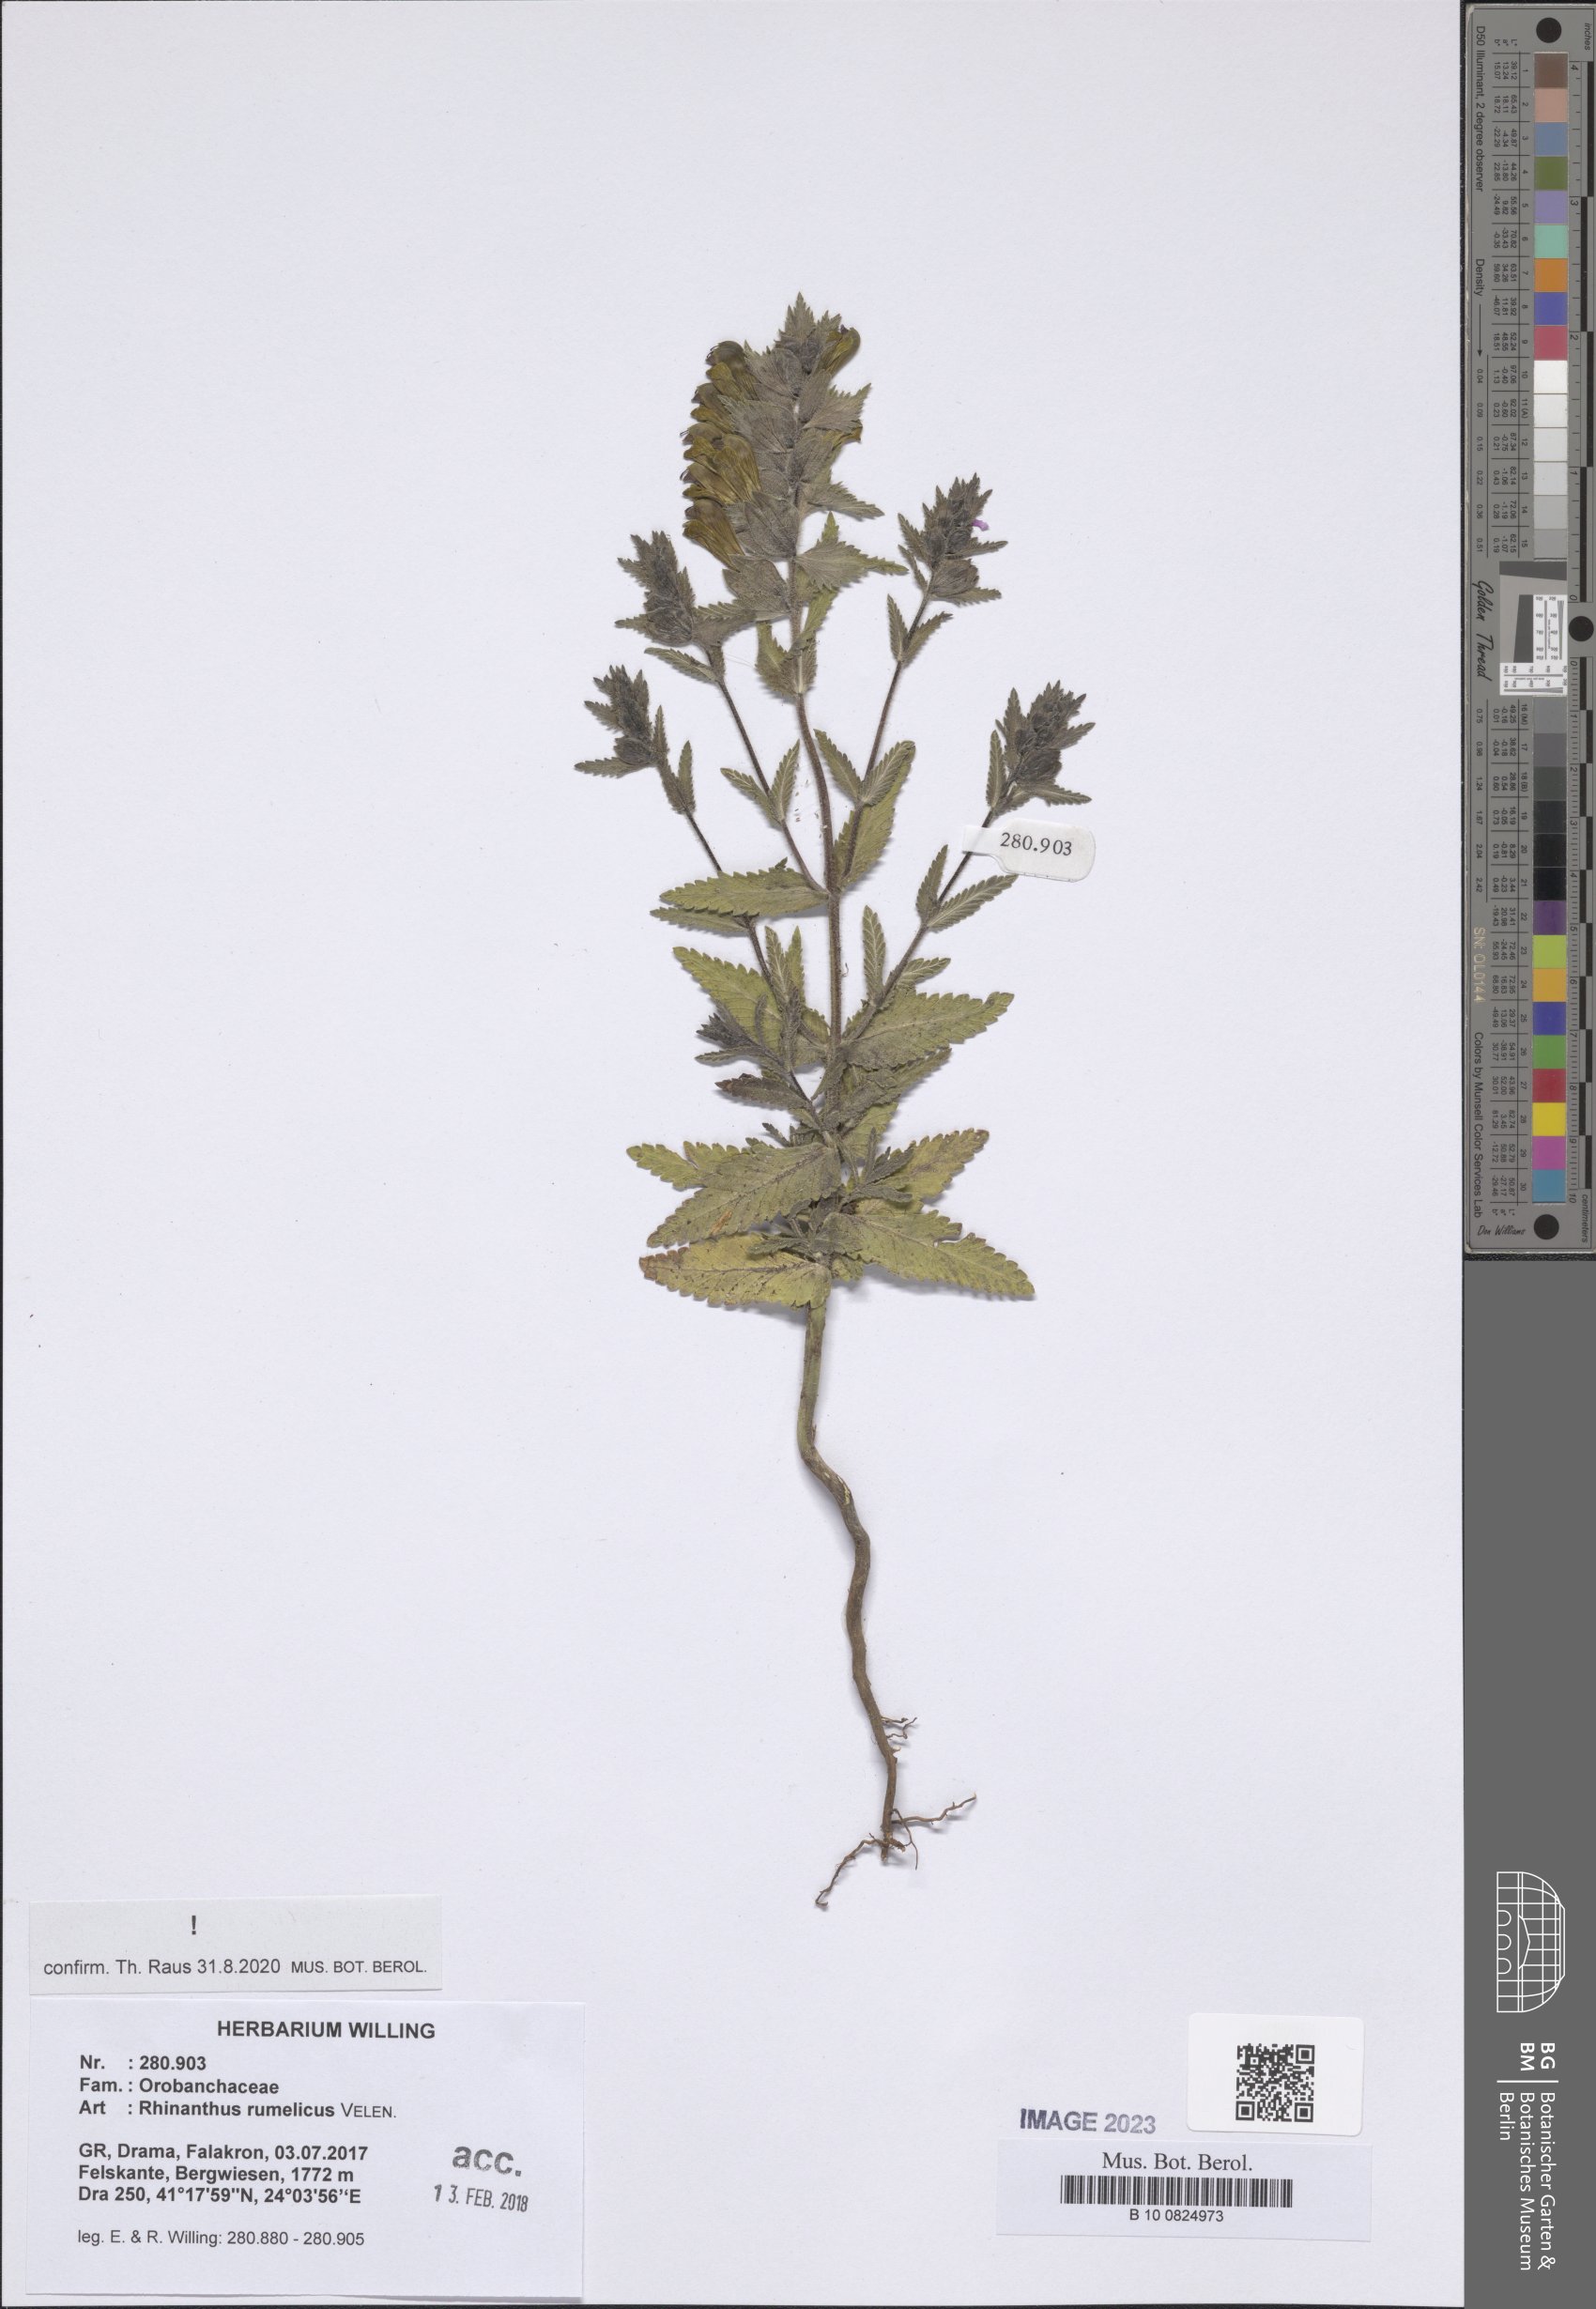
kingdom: Plantae
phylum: Tracheophyta
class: Magnoliopsida
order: Lamiales
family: Orobanchaceae
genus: Rhinanthus
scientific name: Rhinanthus rumelicus
